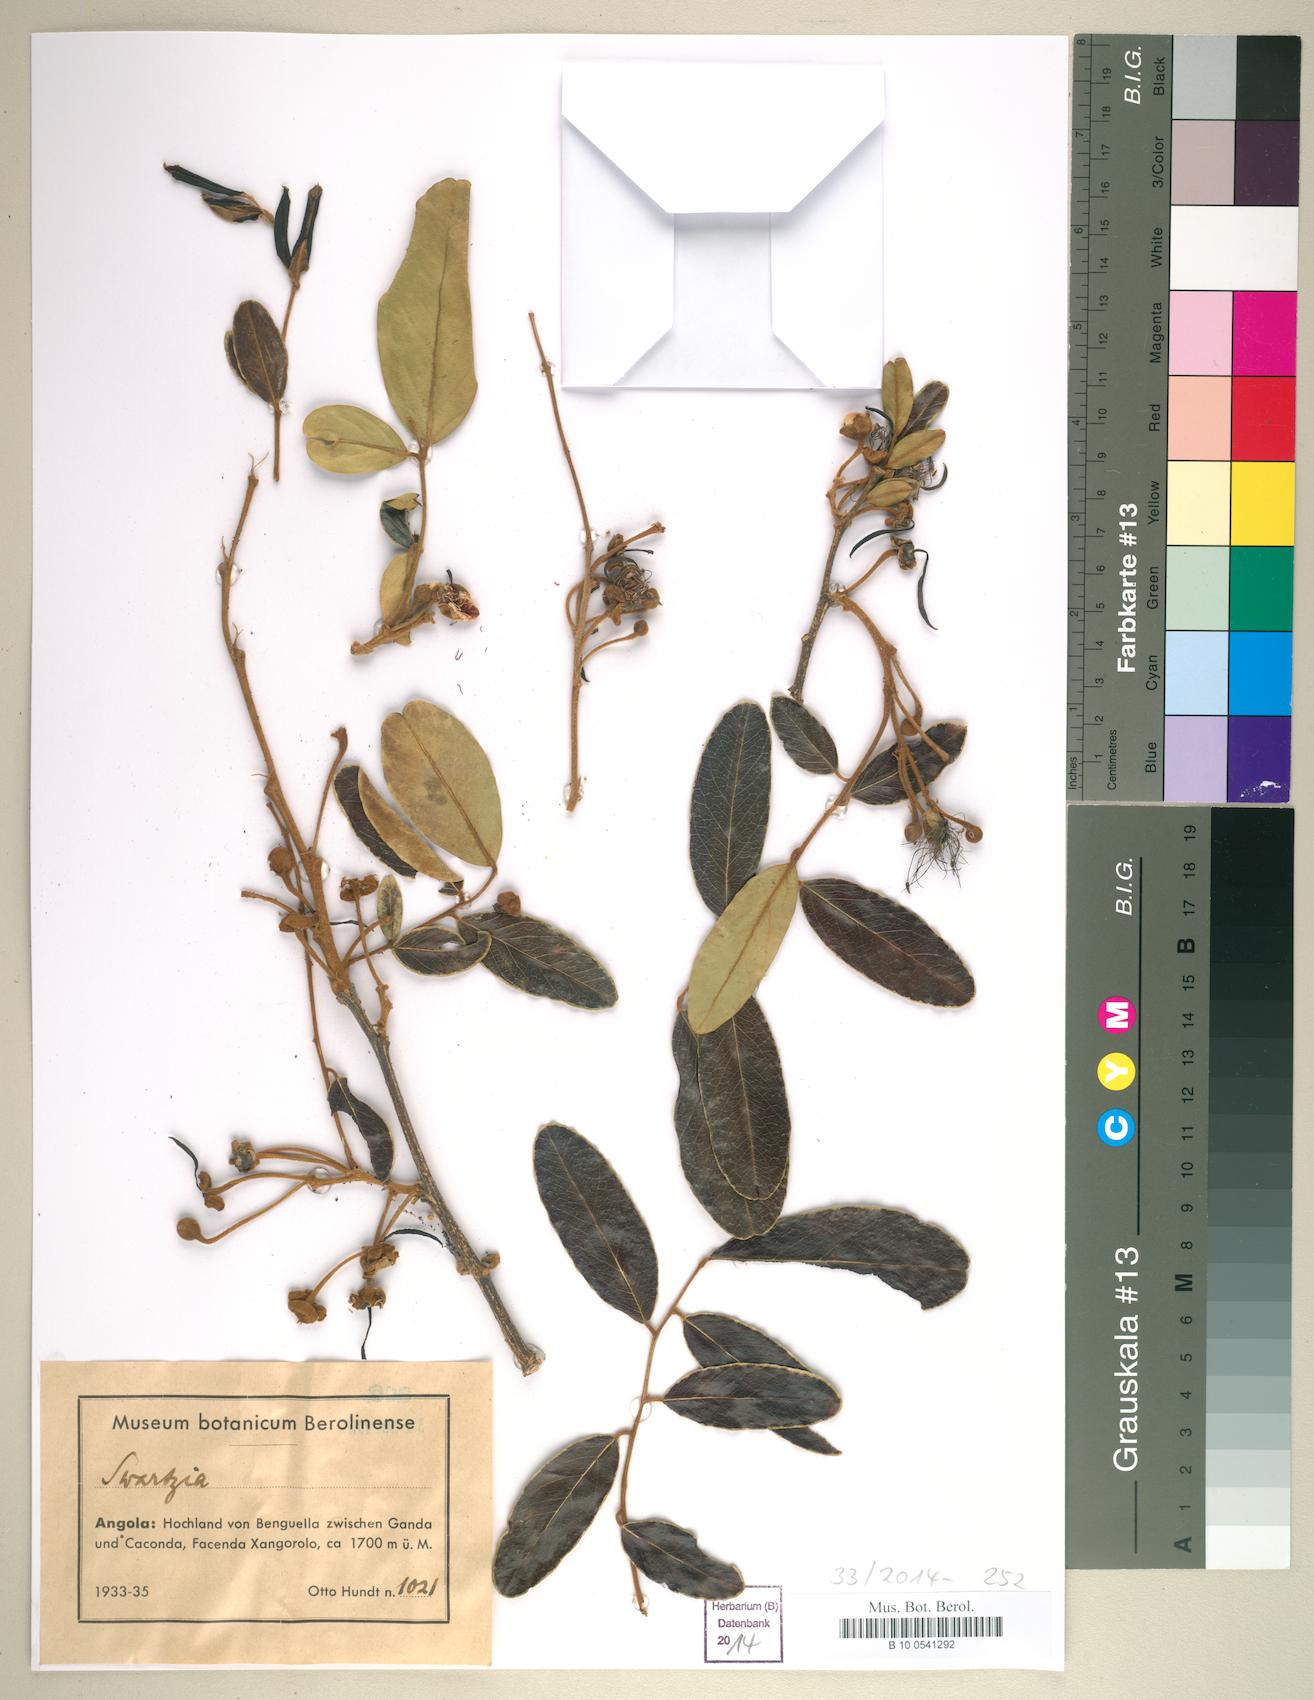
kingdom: Plantae
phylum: Tracheophyta
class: Magnoliopsida
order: Solanales
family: Solanaceae
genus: Solandra
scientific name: Solandra
